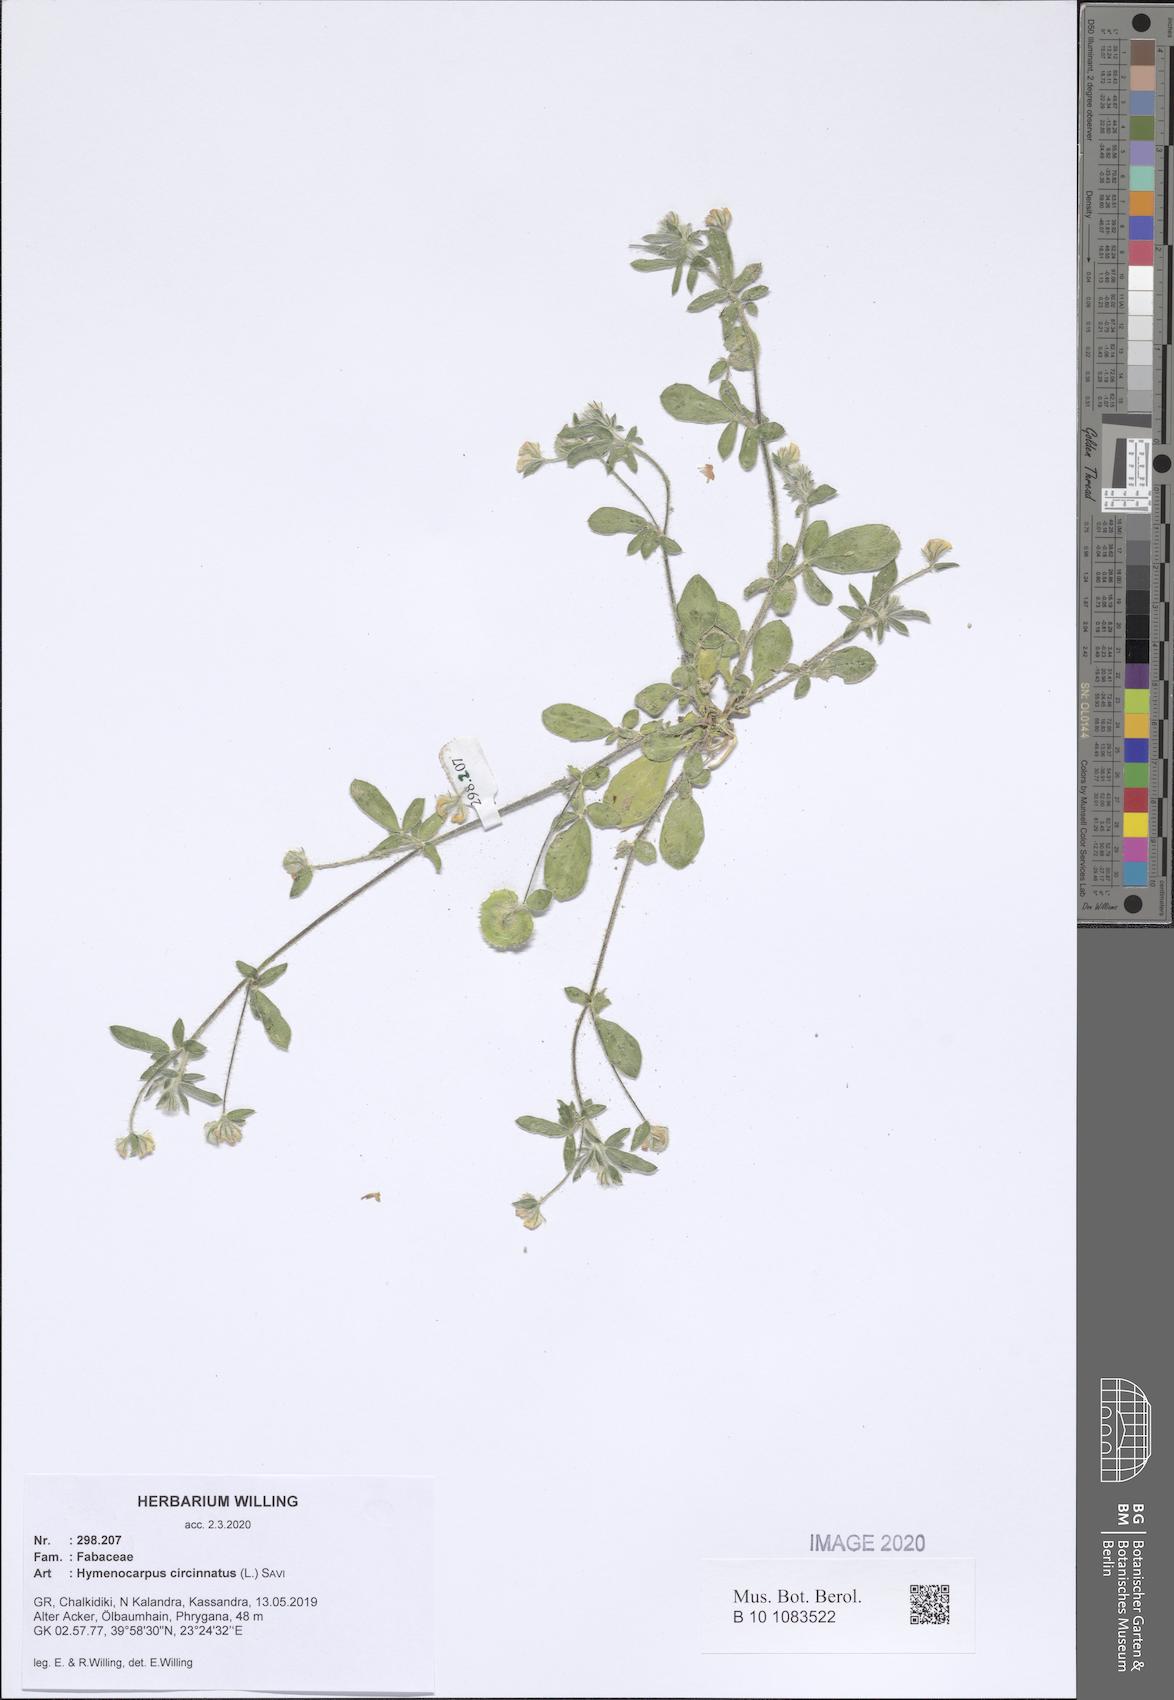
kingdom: Plantae
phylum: Tracheophyta
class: Magnoliopsida
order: Fabales
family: Fabaceae
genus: Anthyllis
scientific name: Anthyllis circinnata
